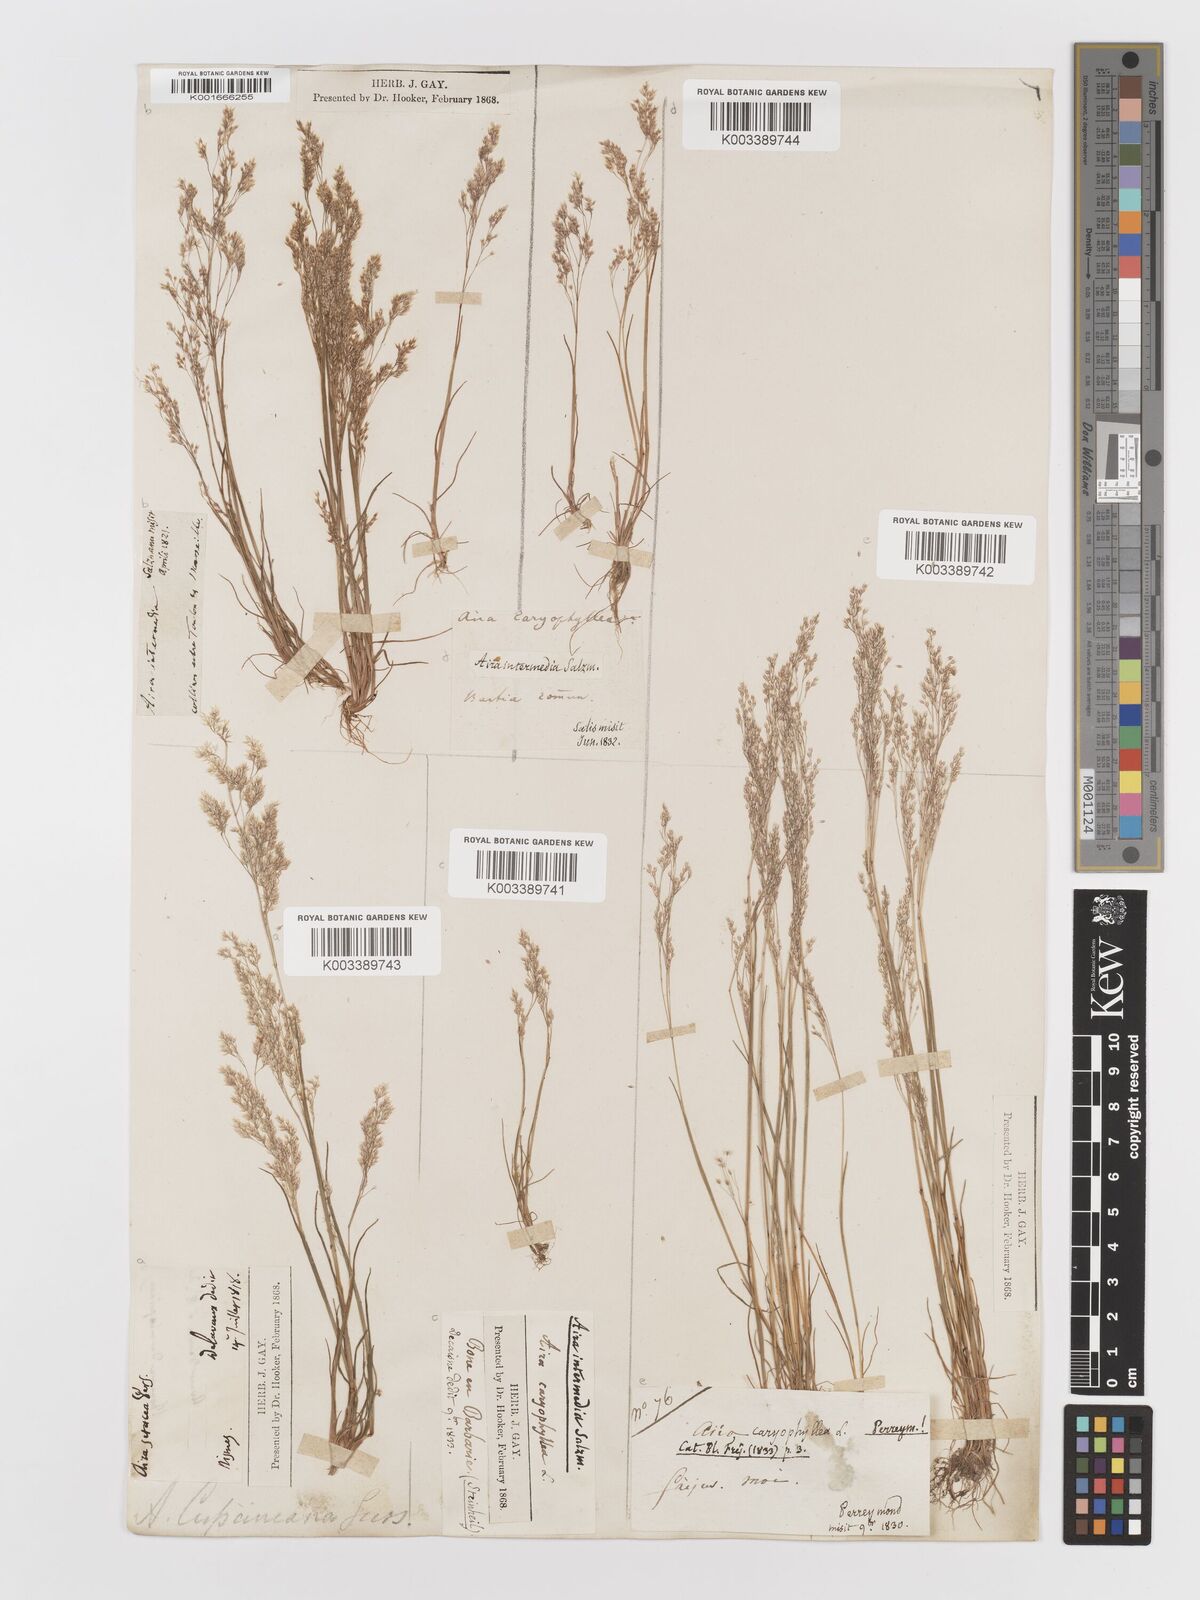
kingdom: Plantae
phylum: Tracheophyta
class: Liliopsida
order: Poales
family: Poaceae
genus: Aira
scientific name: Aira cupaniana
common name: Silver hairgrass
